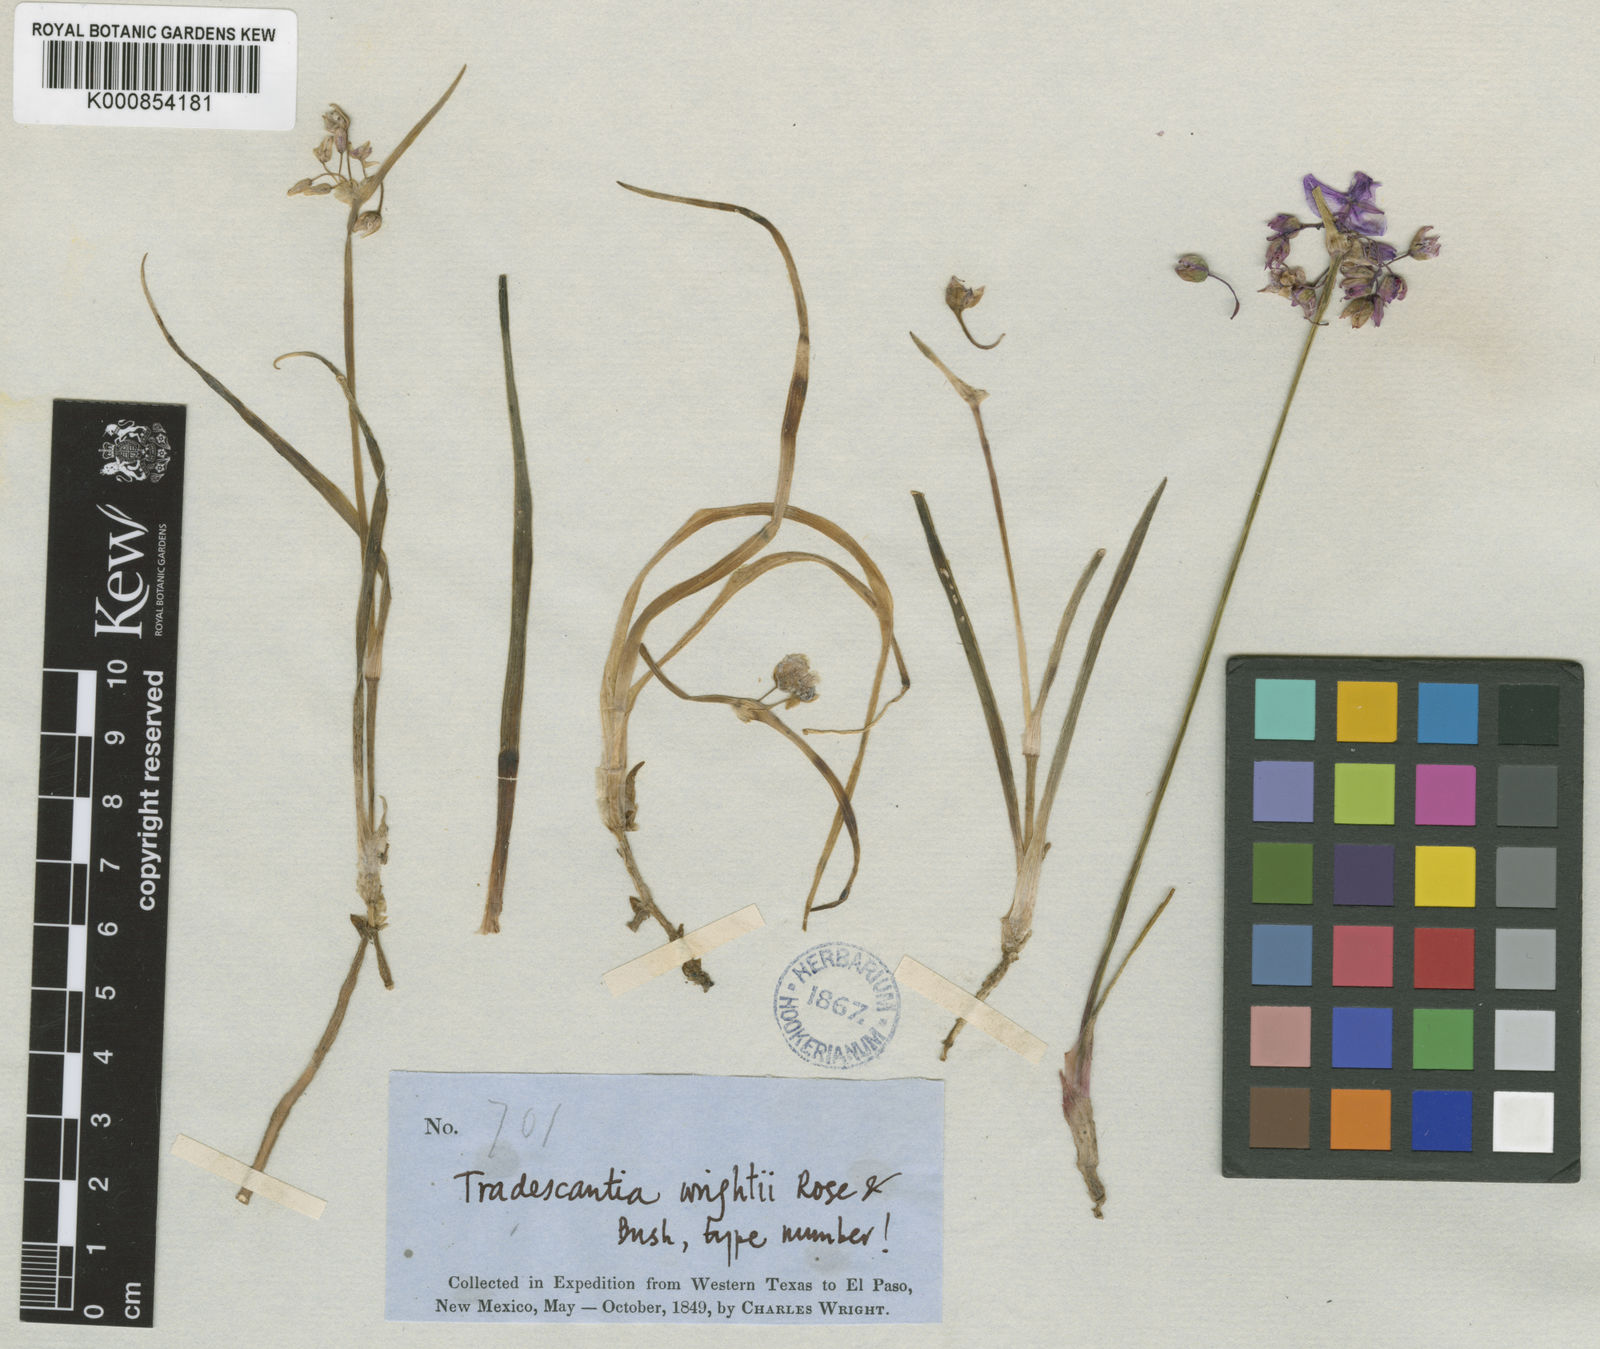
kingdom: Plantae
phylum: Tracheophyta
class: Liliopsida
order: Commelinales
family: Commelinaceae
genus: Tradescantia
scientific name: Tradescantia wrightii
